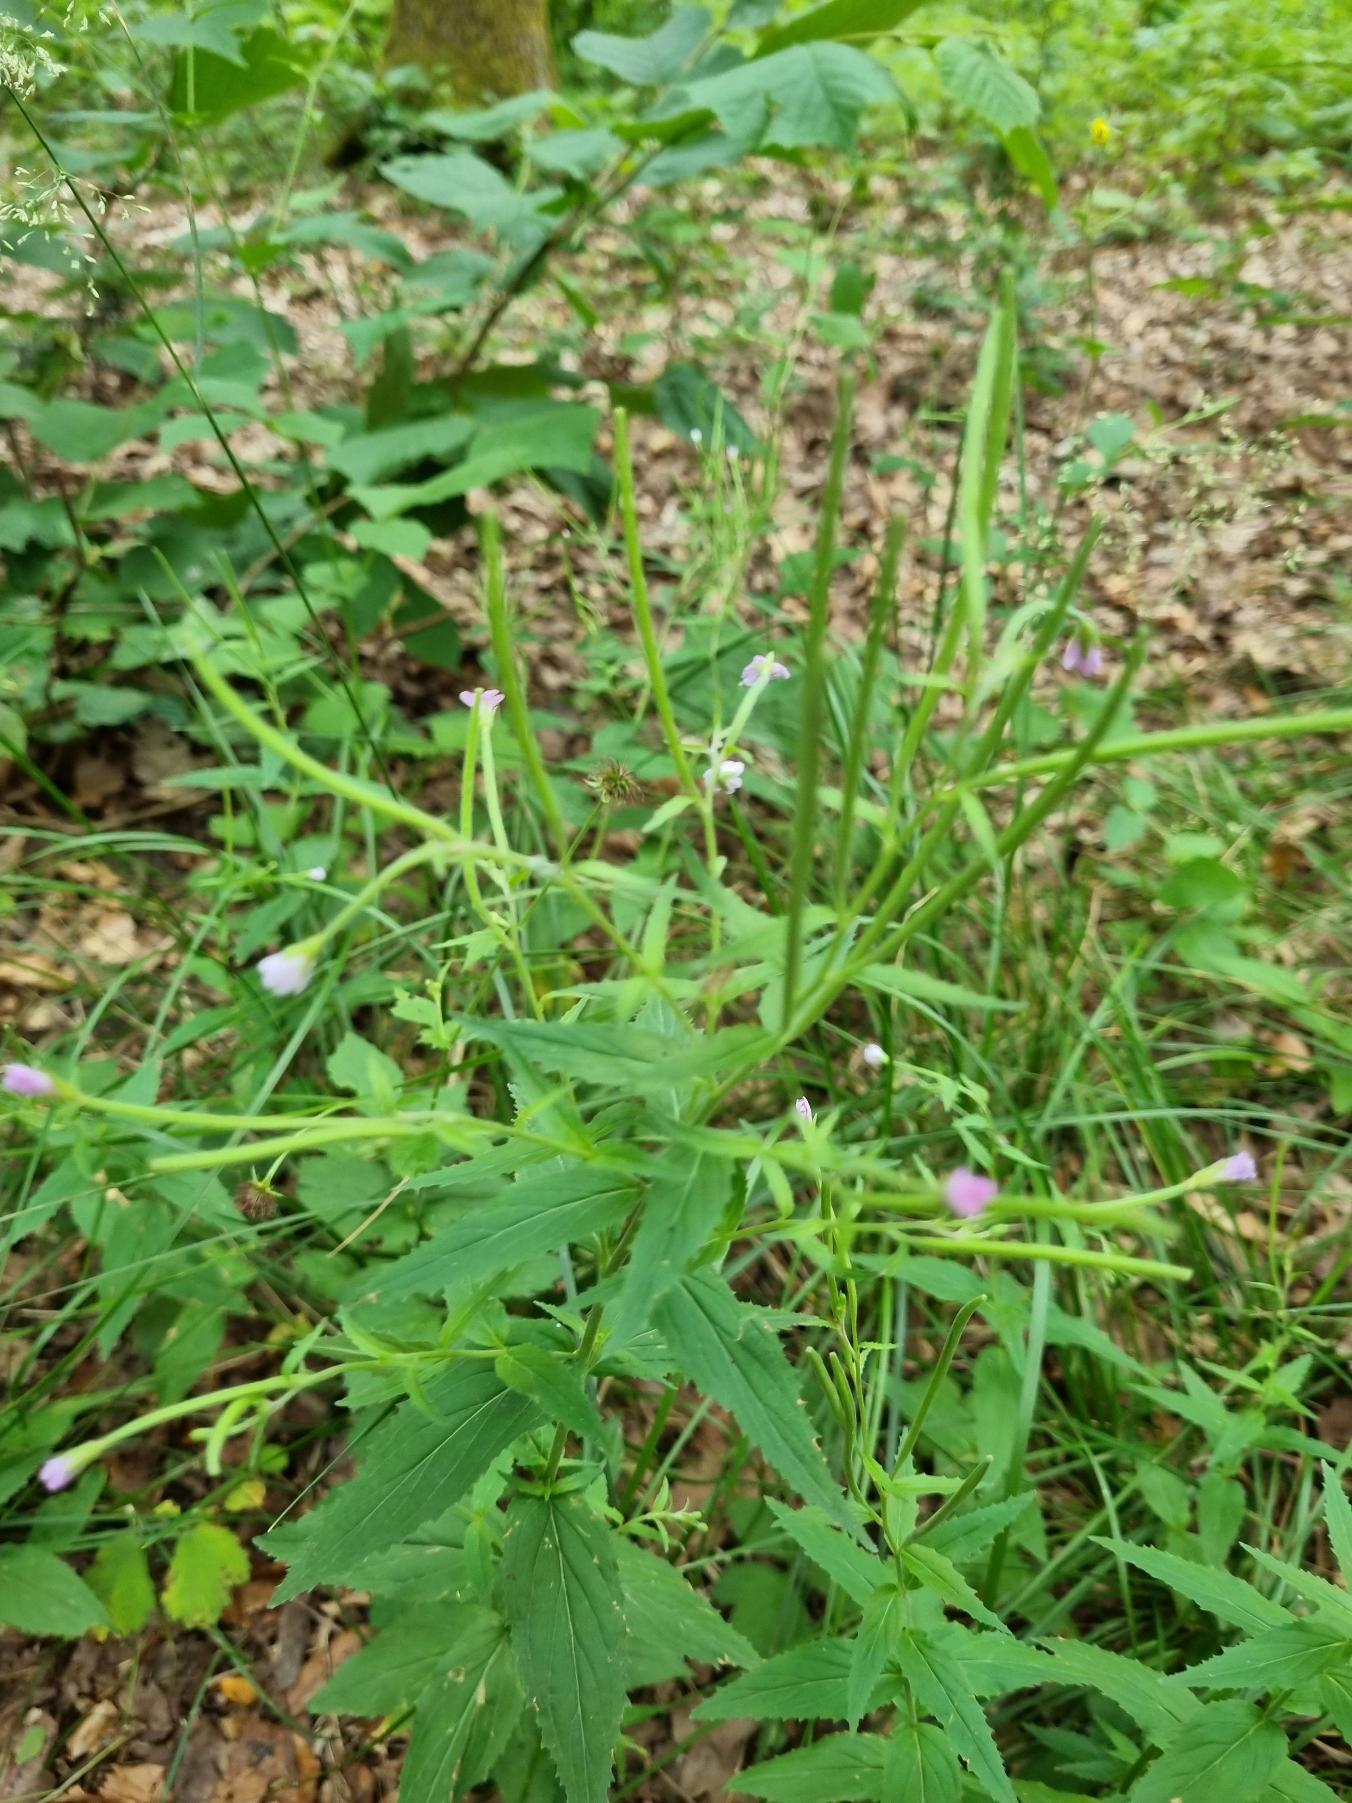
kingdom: Plantae
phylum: Tracheophyta
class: Magnoliopsida
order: Myrtales
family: Onagraceae
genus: Epilobium
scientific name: Epilobium
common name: Dueurtslægten
